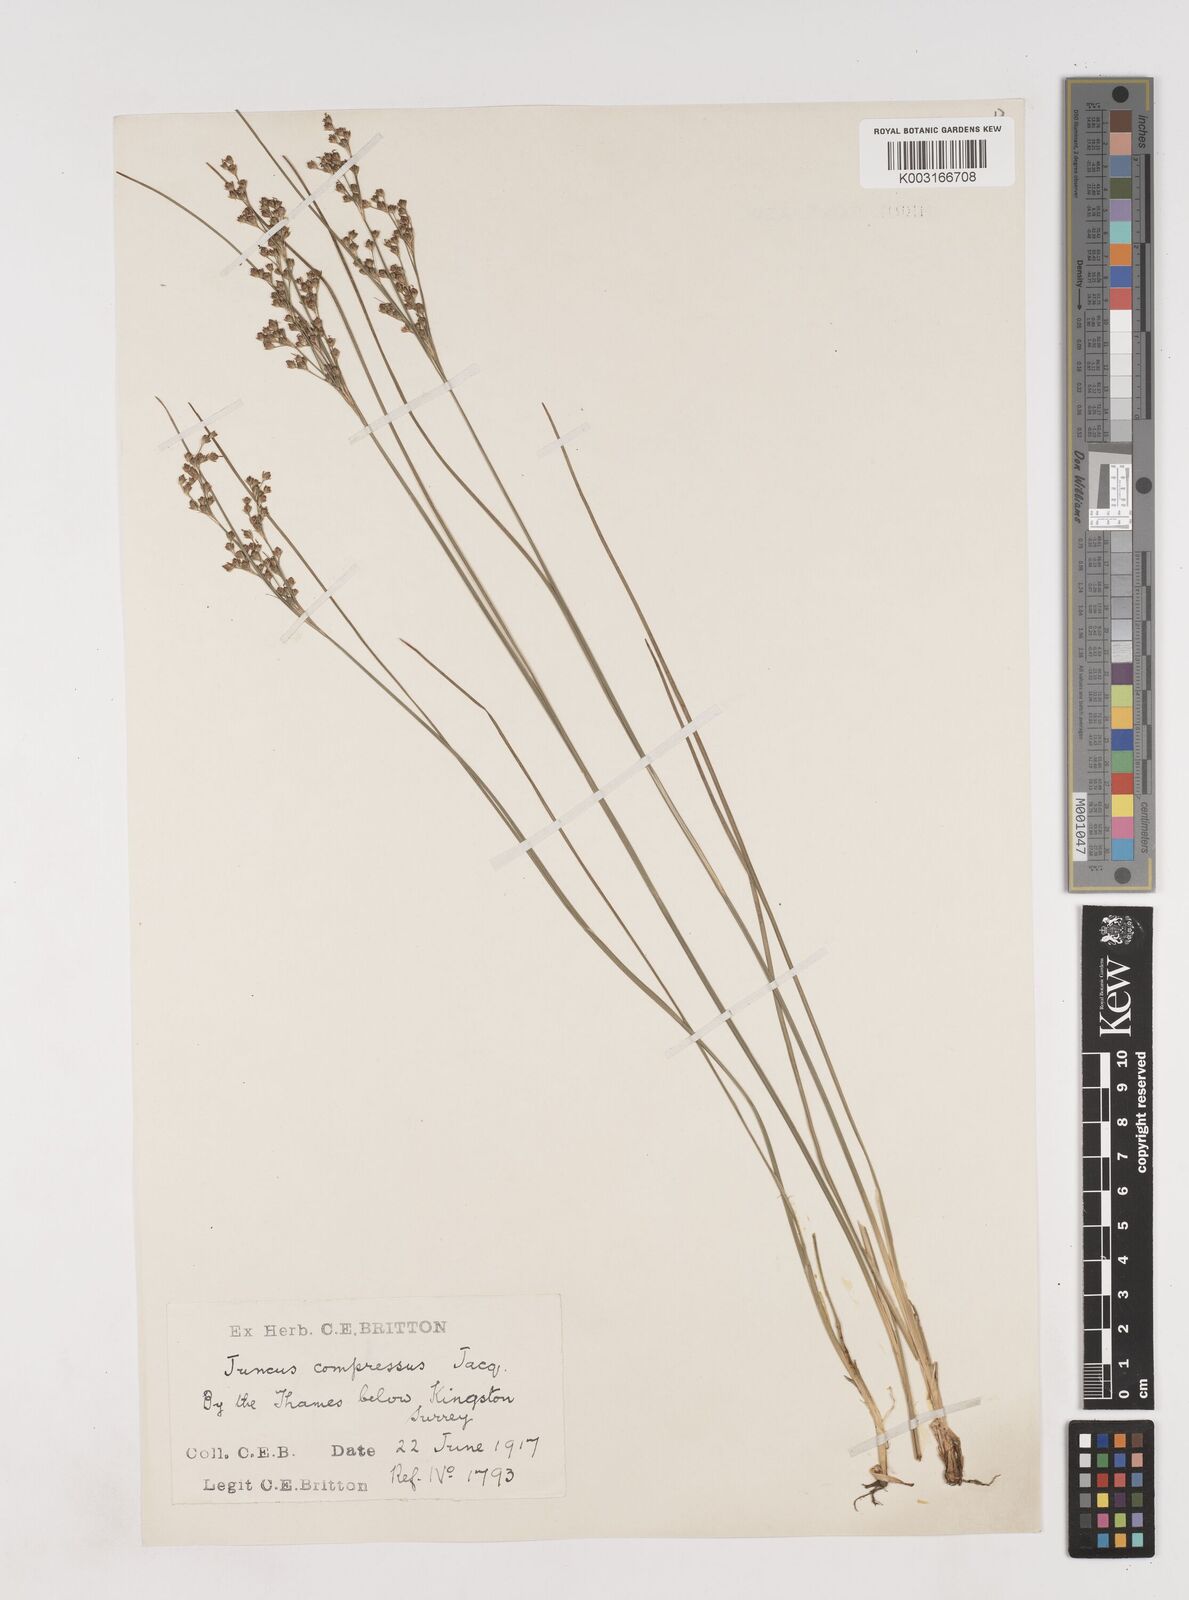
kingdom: Plantae
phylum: Tracheophyta
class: Liliopsida
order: Poales
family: Juncaceae
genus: Juncus
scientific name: Juncus compressus
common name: Round-fruited rush
